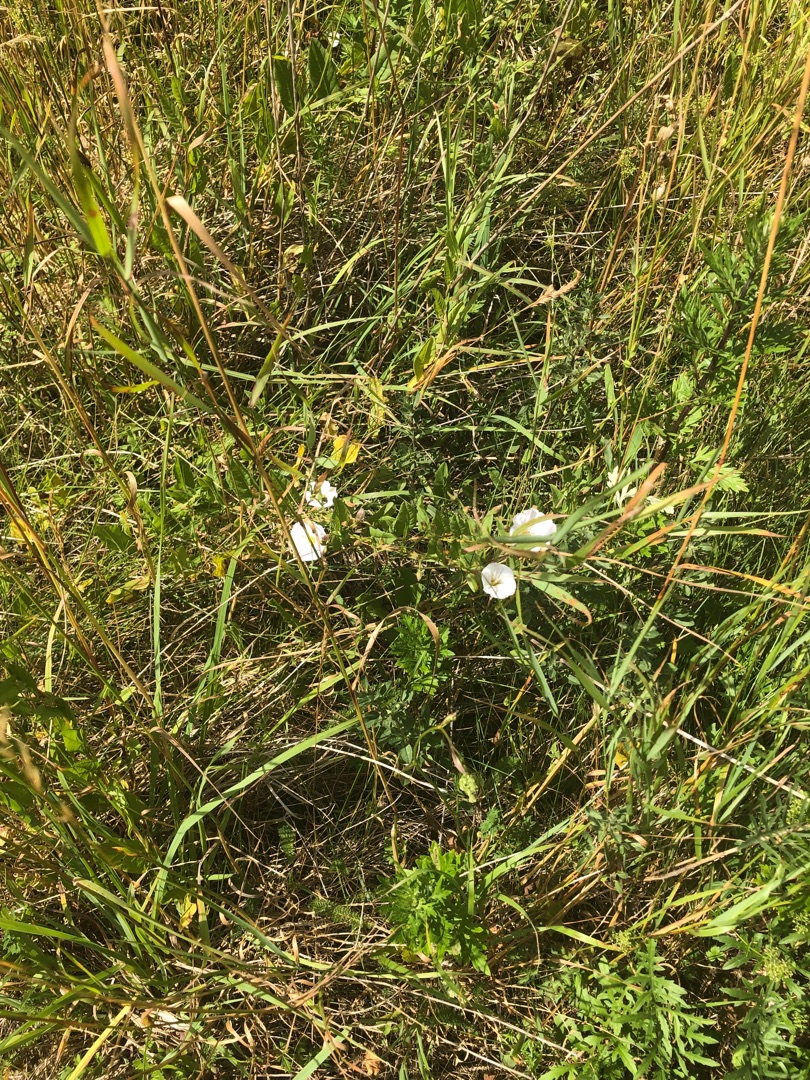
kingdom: Plantae
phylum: Tracheophyta
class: Magnoliopsida
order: Solanales
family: Convolvulaceae
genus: Convolvulus
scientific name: Convolvulus arvensis
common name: Ager-snerle
